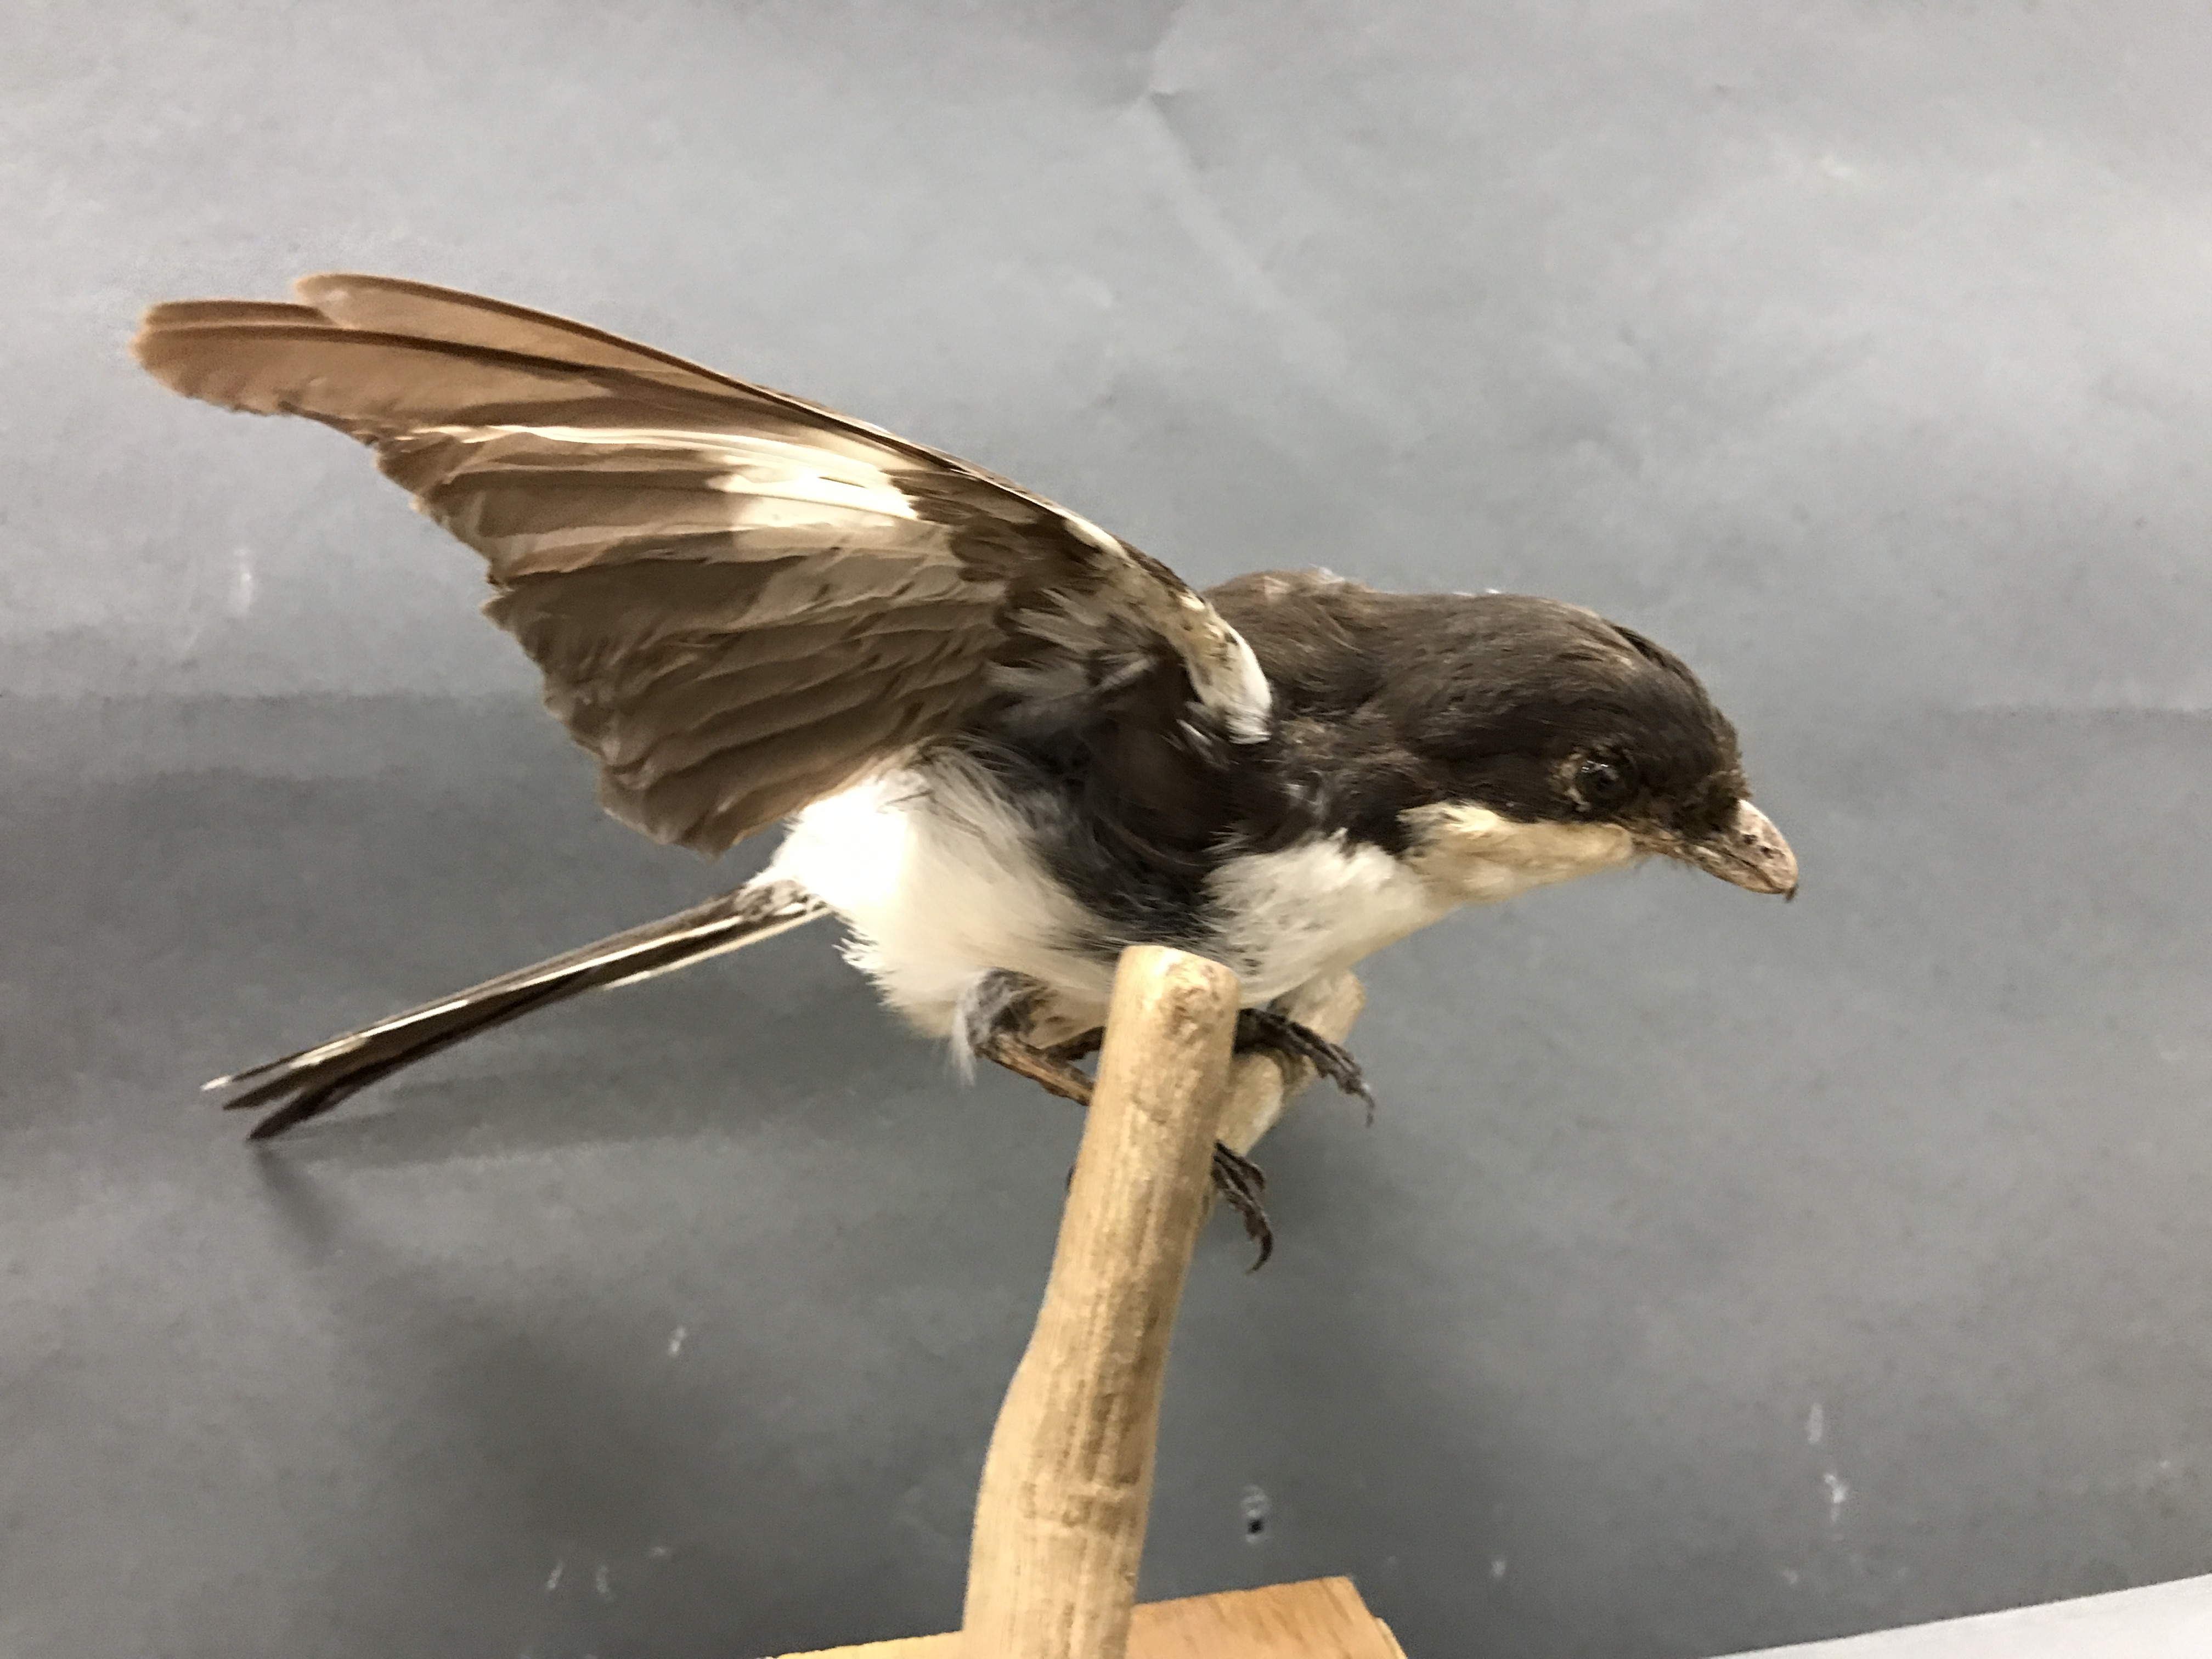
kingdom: Animalia
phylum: Chordata
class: Aves
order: Passeriformes
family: Laniidae
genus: Lanius
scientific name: Lanius collaris
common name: Southern fiscal
